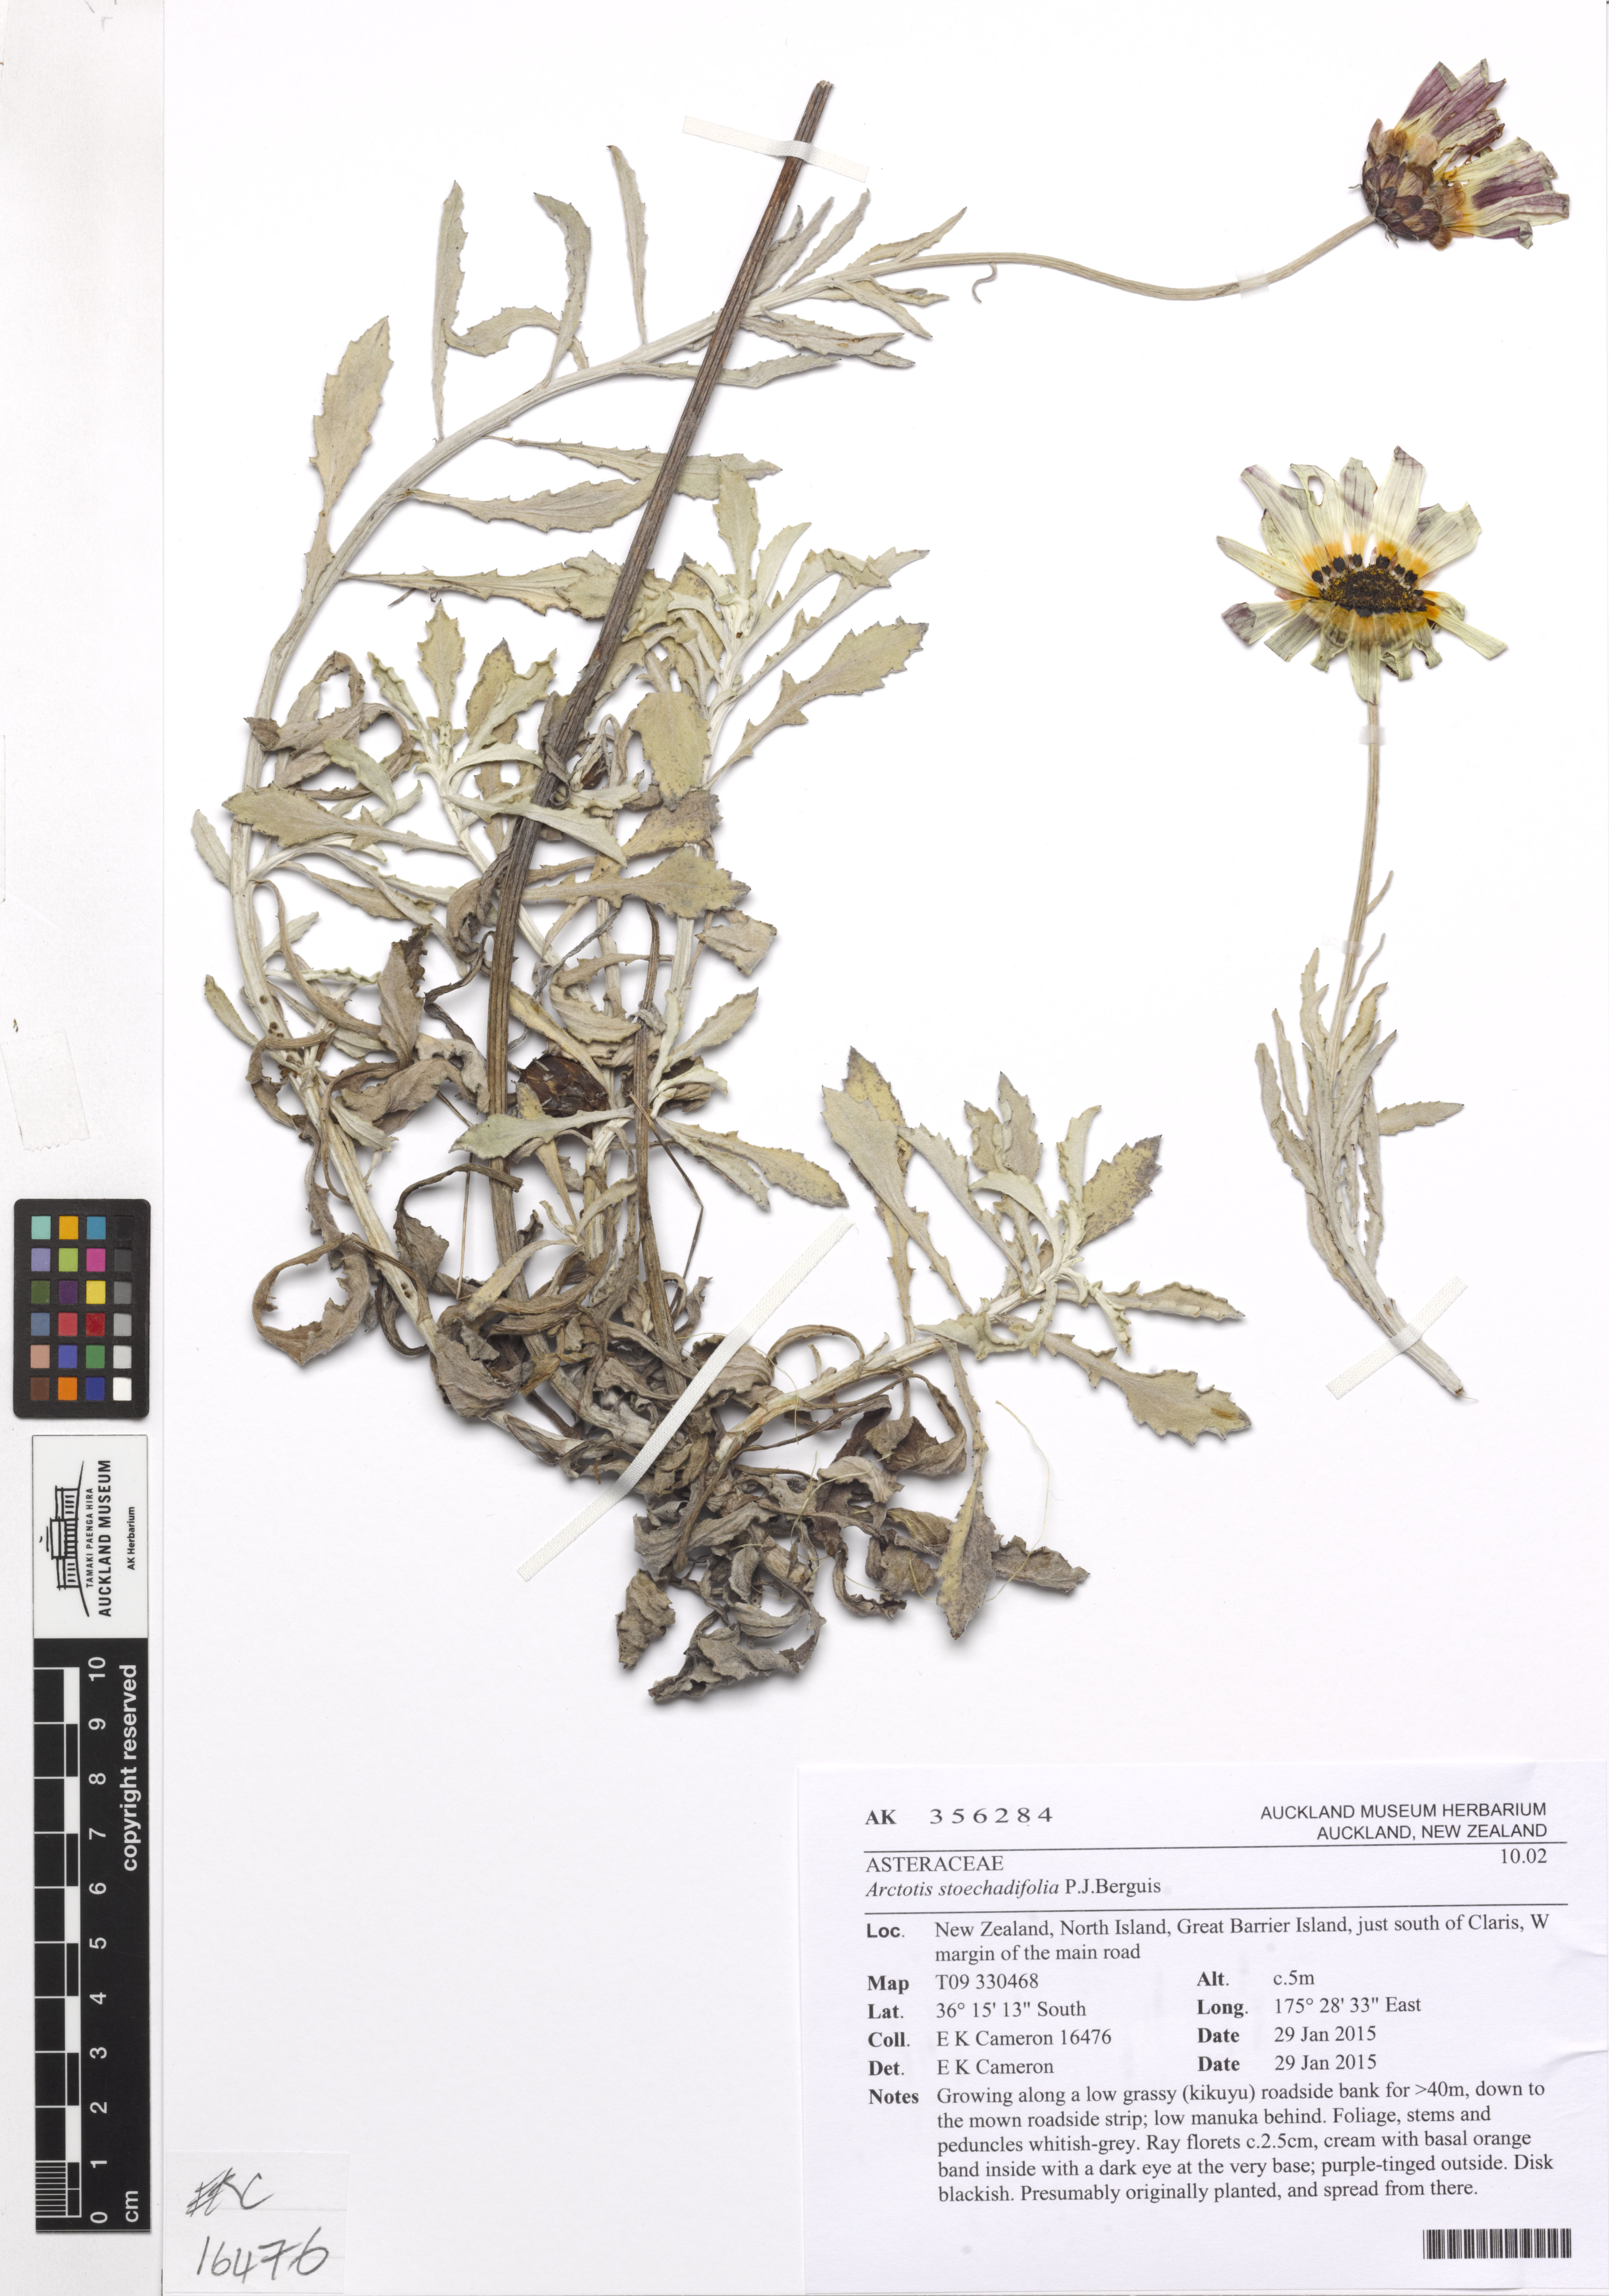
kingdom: Plantae
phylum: Tracheophyta
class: Magnoliopsida
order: Asterales
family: Asteraceae
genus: Arctotis
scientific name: Arctotis stoechadifolia
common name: African daisy
